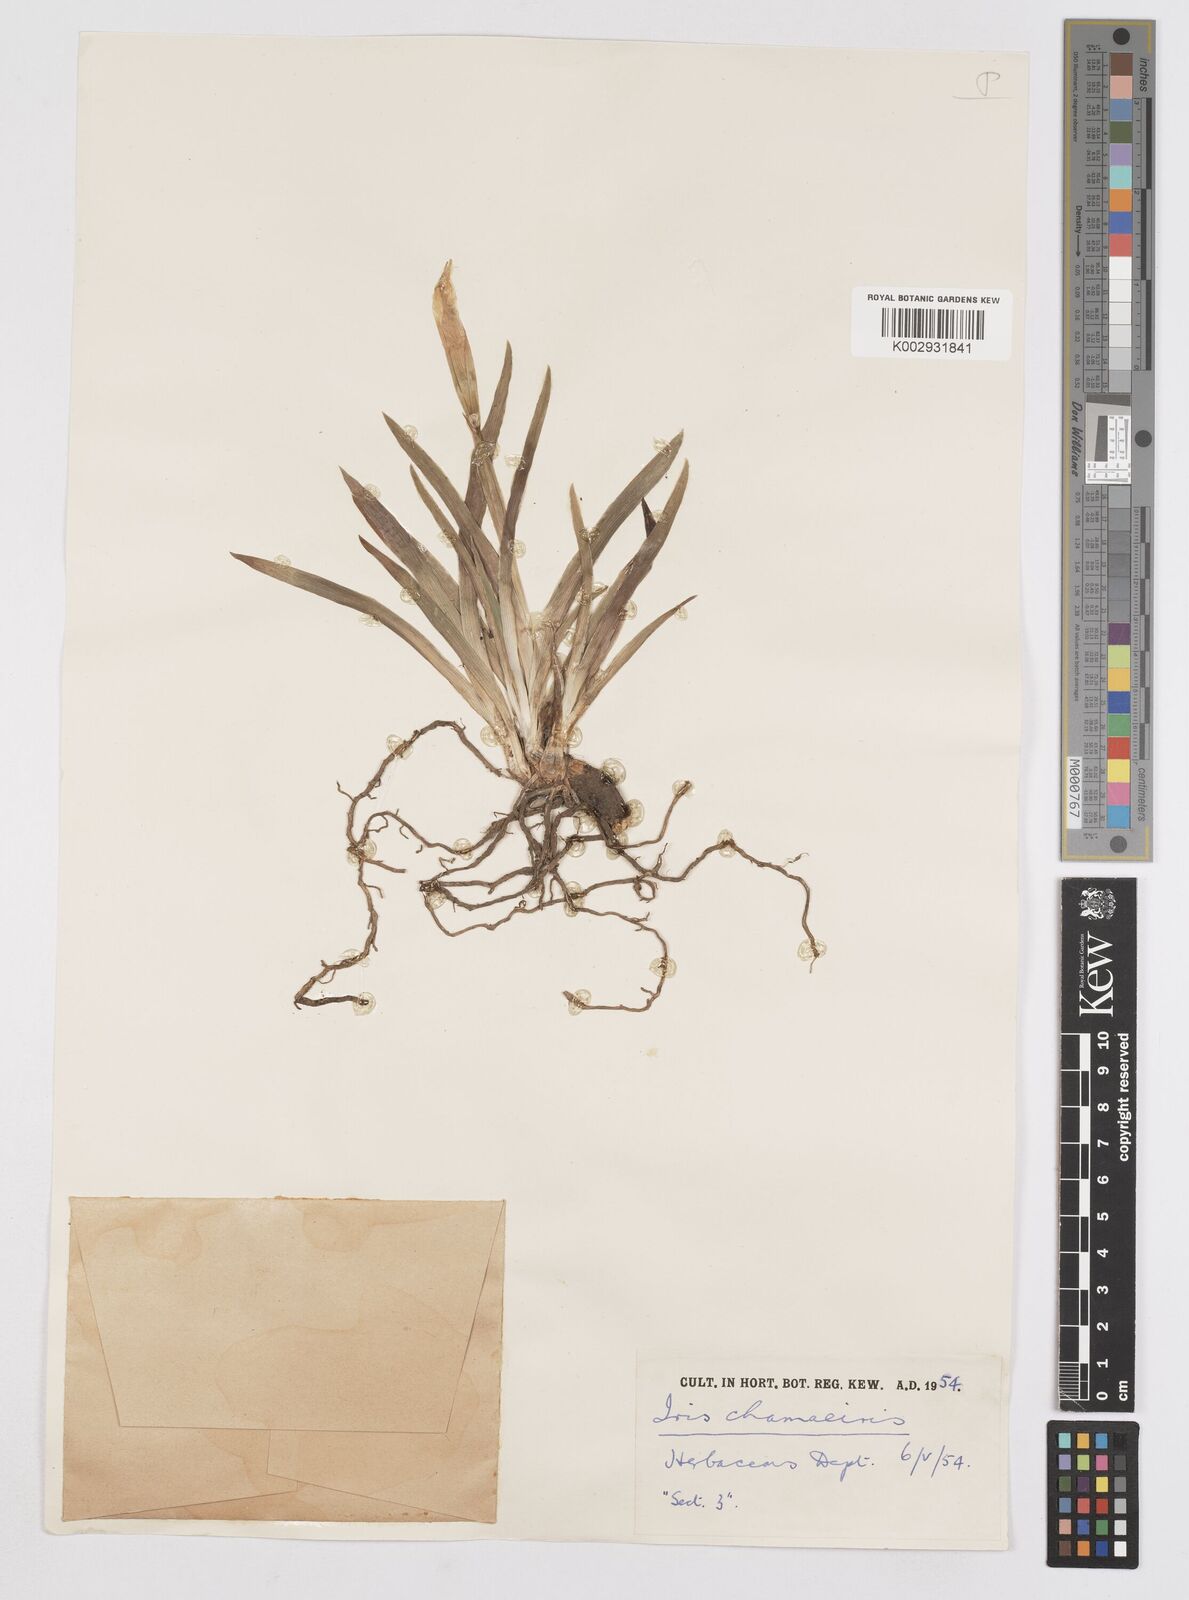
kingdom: Plantae
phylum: Tracheophyta
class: Liliopsida
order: Asparagales
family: Iridaceae
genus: Iris
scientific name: Iris lutescens
